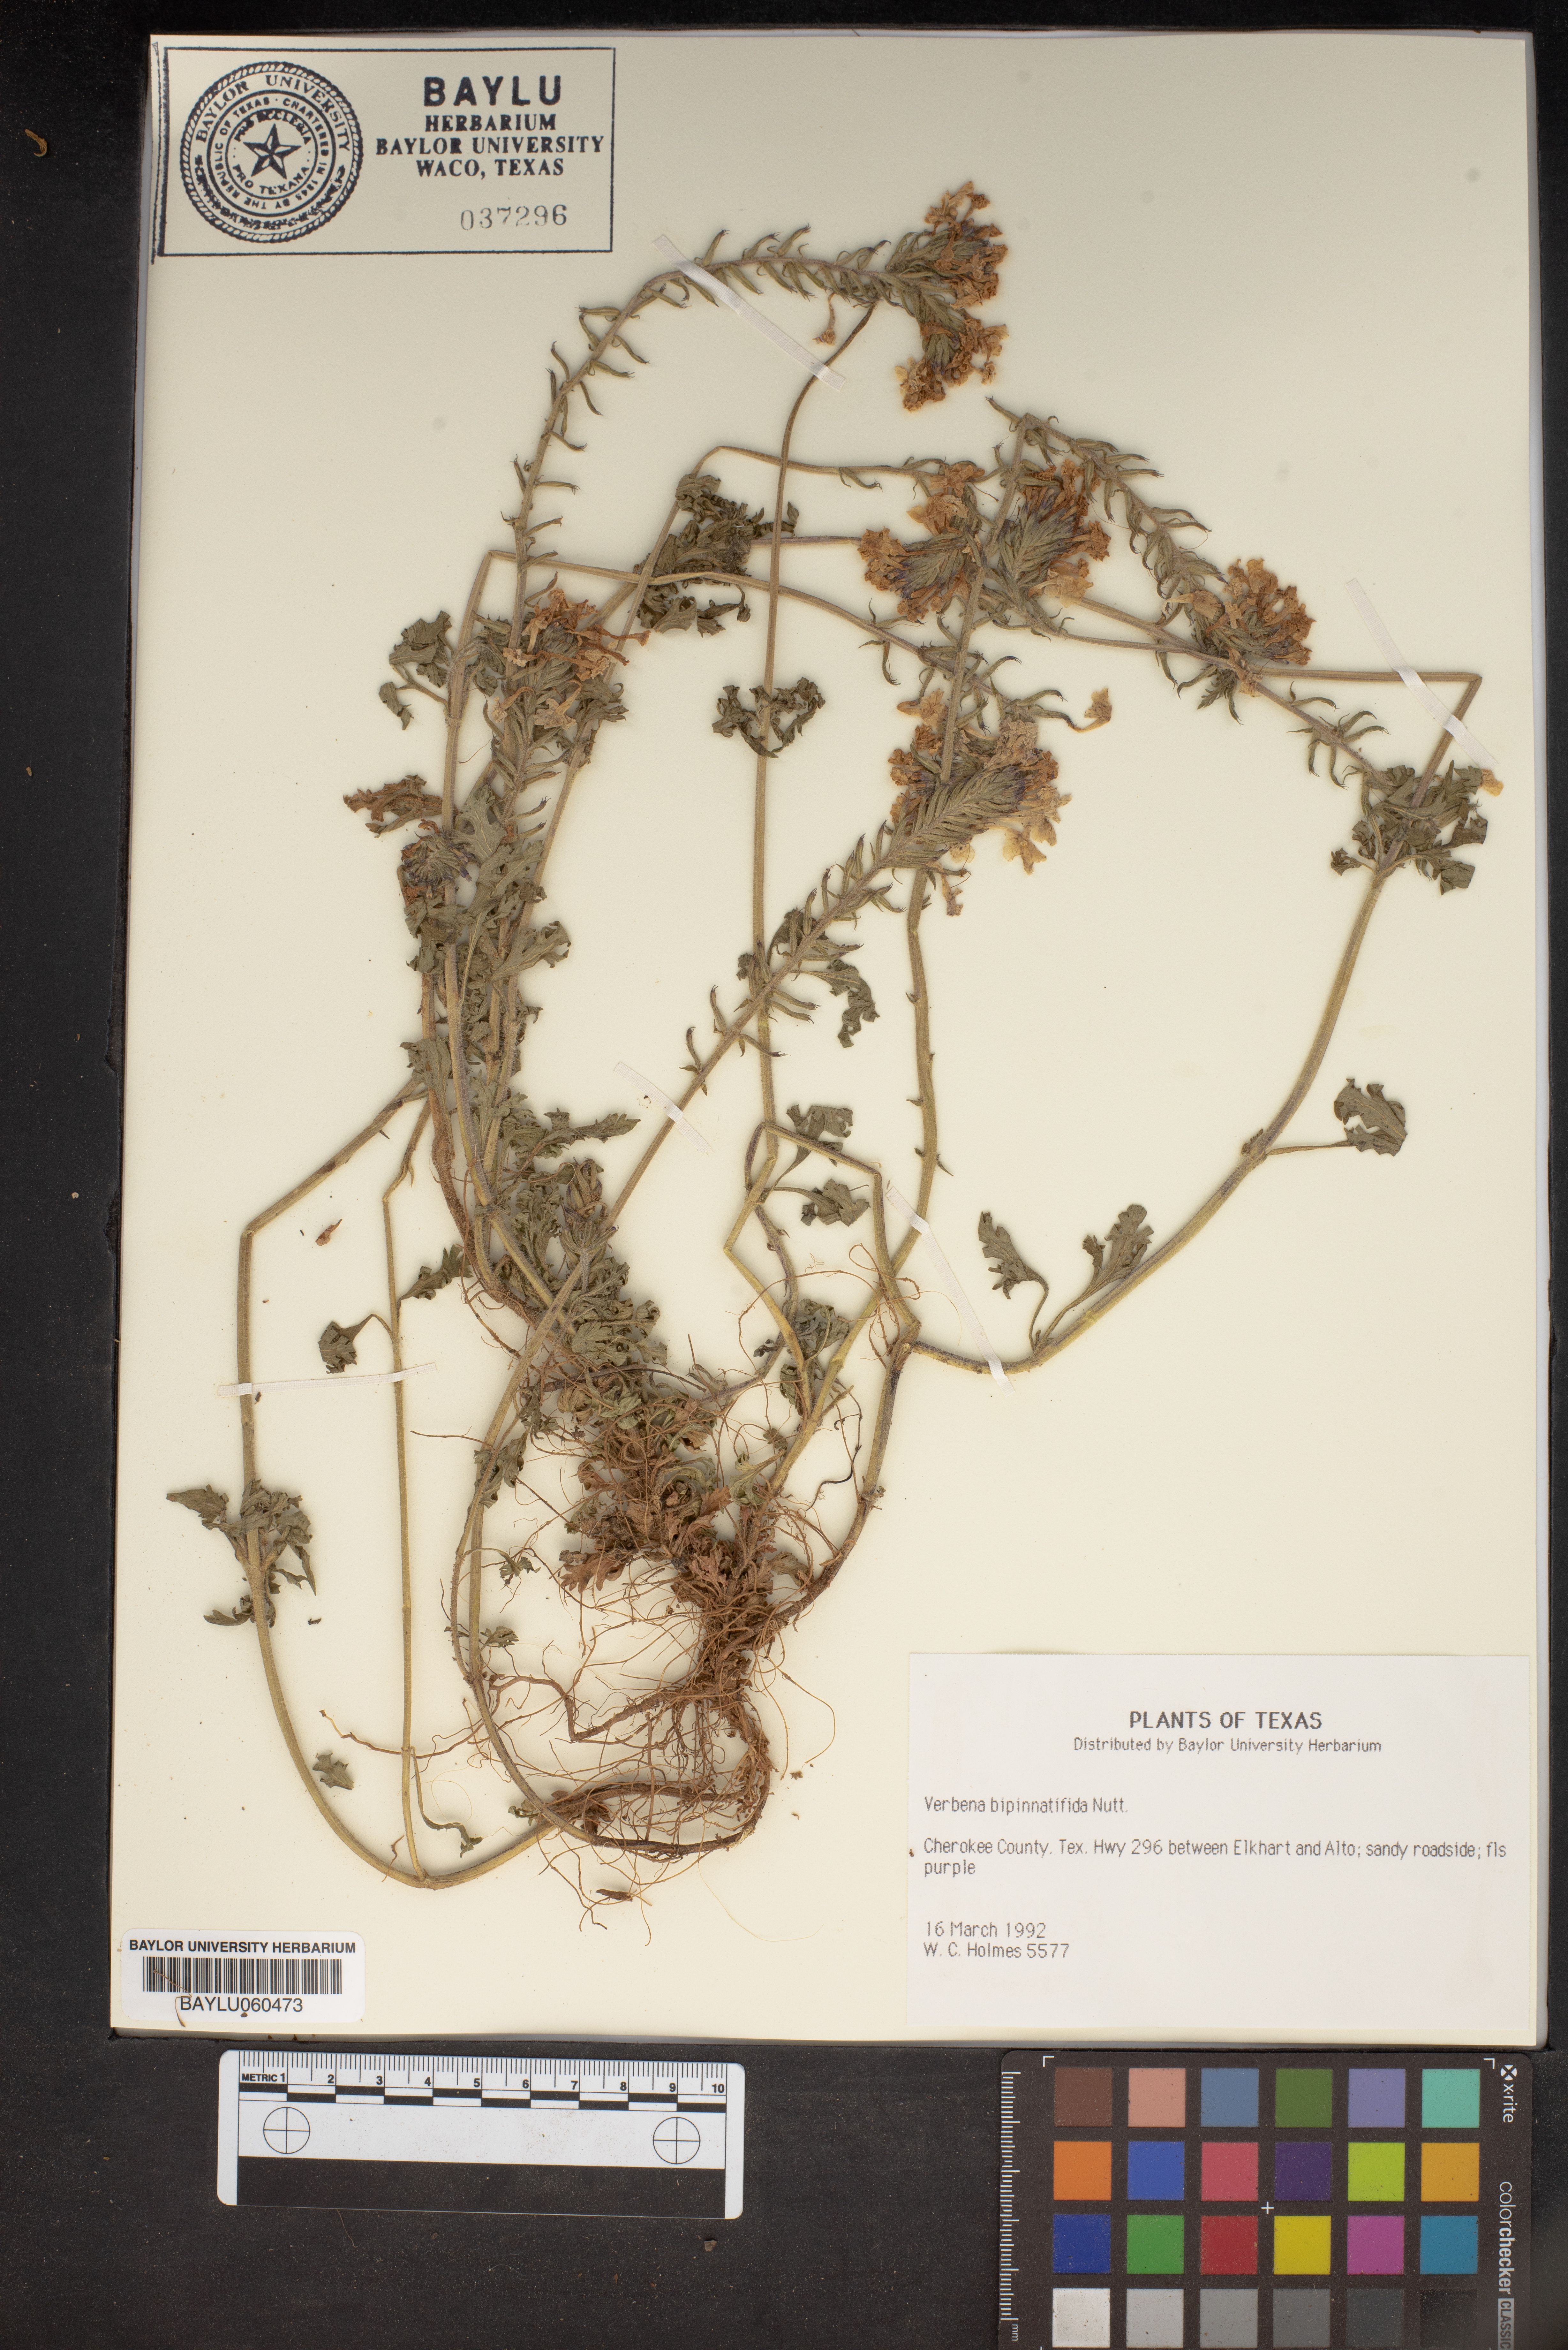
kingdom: Plantae
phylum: Tracheophyta
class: Magnoliopsida
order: Lamiales
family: Verbenaceae
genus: Verbena
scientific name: Verbena bipinnatifida
